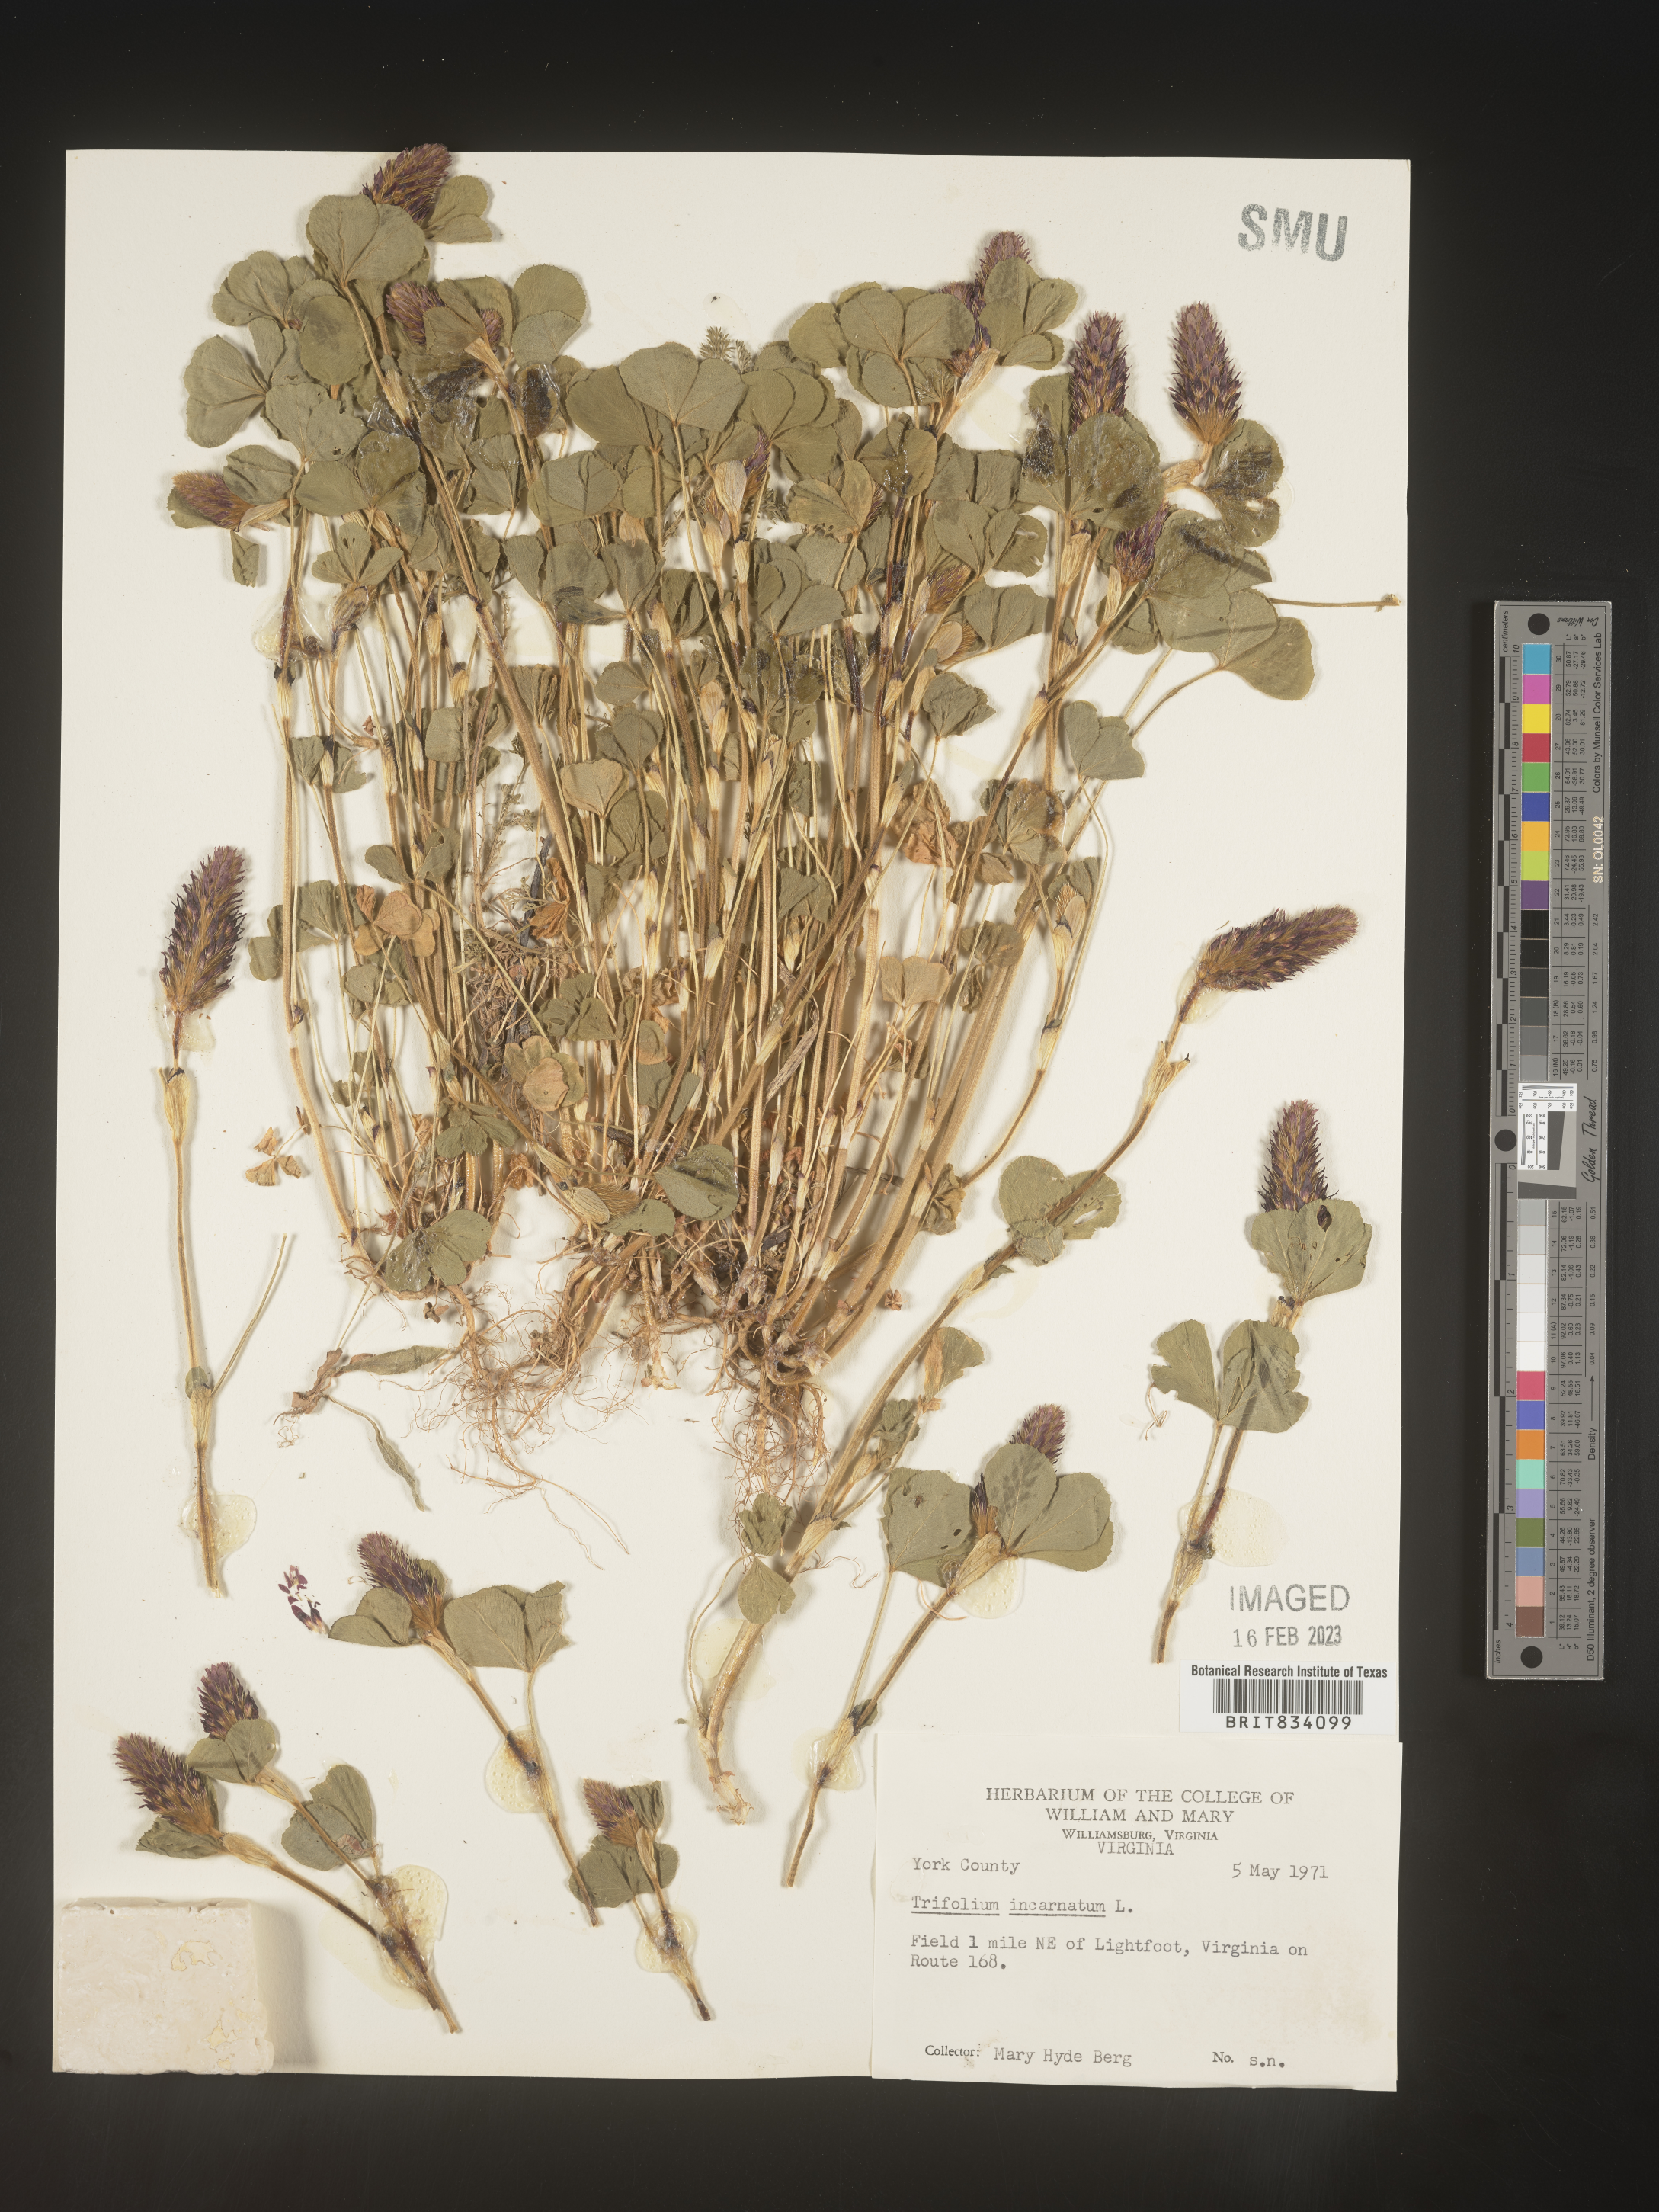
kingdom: Plantae
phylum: Tracheophyta
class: Magnoliopsida
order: Fabales
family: Fabaceae
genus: Trifolium
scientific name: Trifolium incarnatum
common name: Crimson clover
